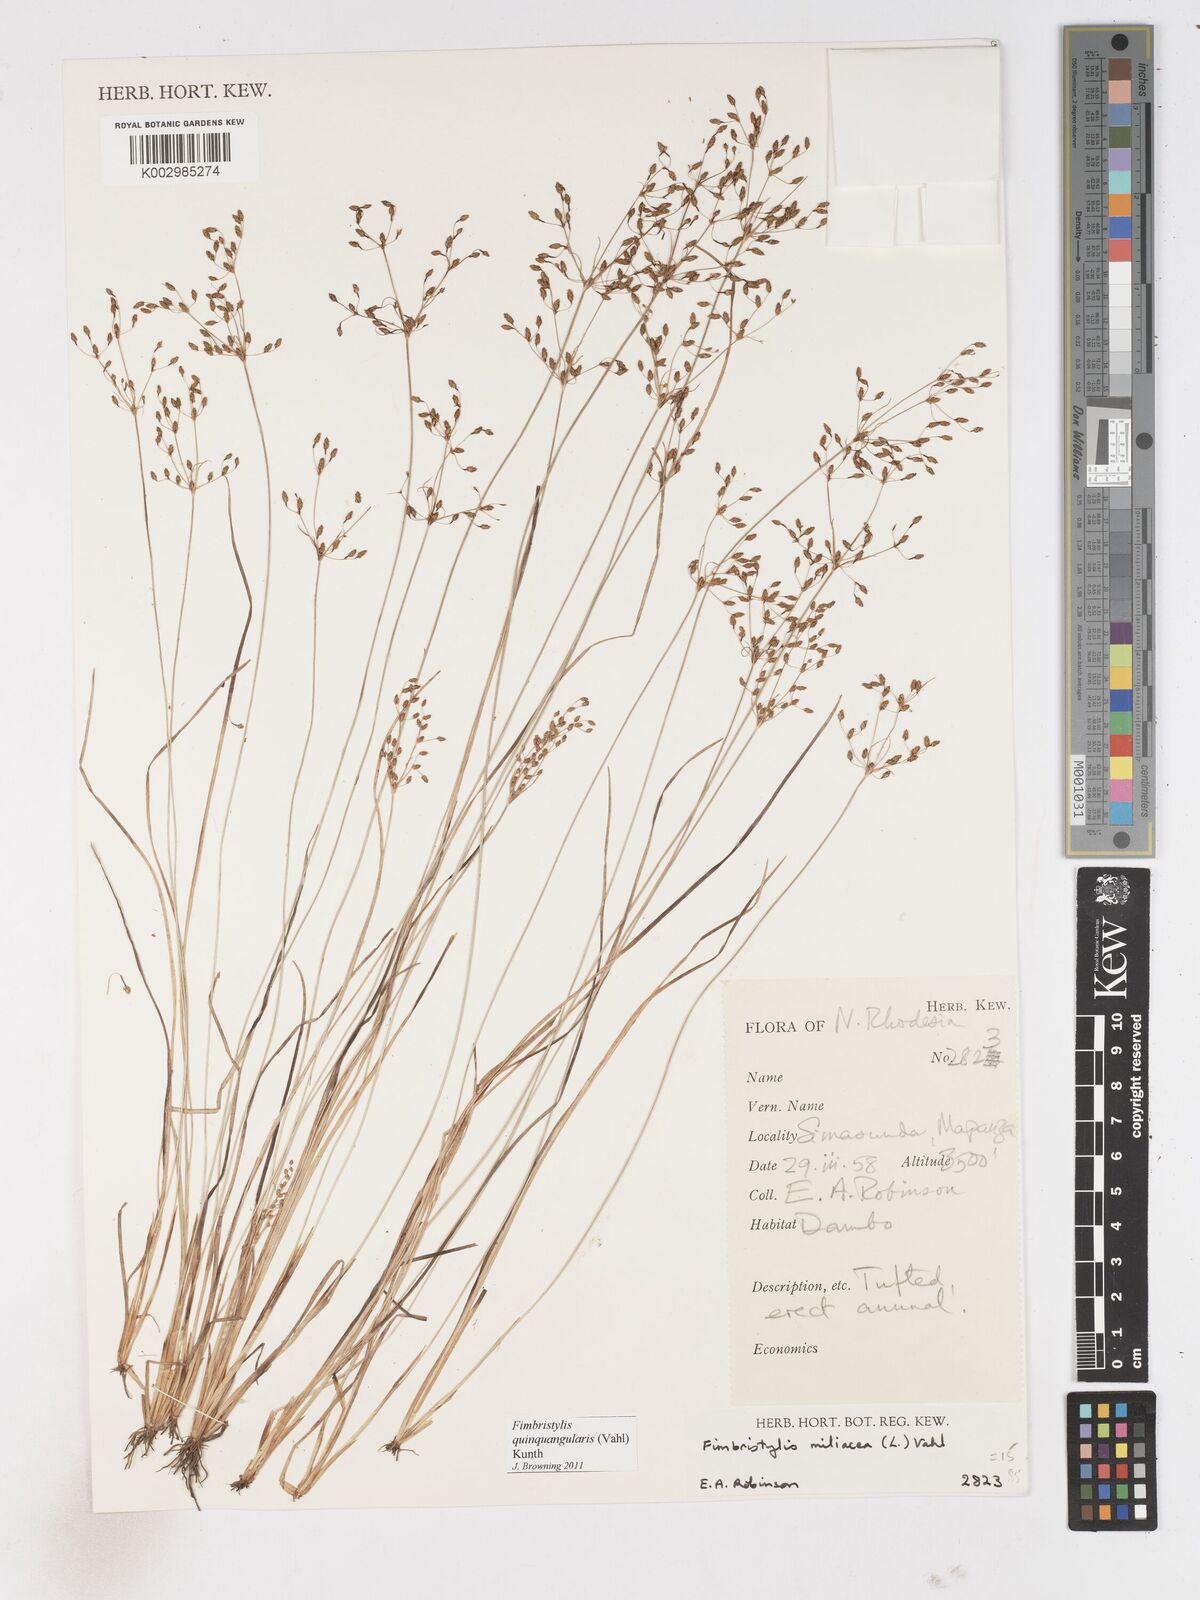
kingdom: Plantae
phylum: Tracheophyta
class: Liliopsida
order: Poales
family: Cyperaceae
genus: Fimbristylis
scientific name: Fimbristylis quinquangularis
